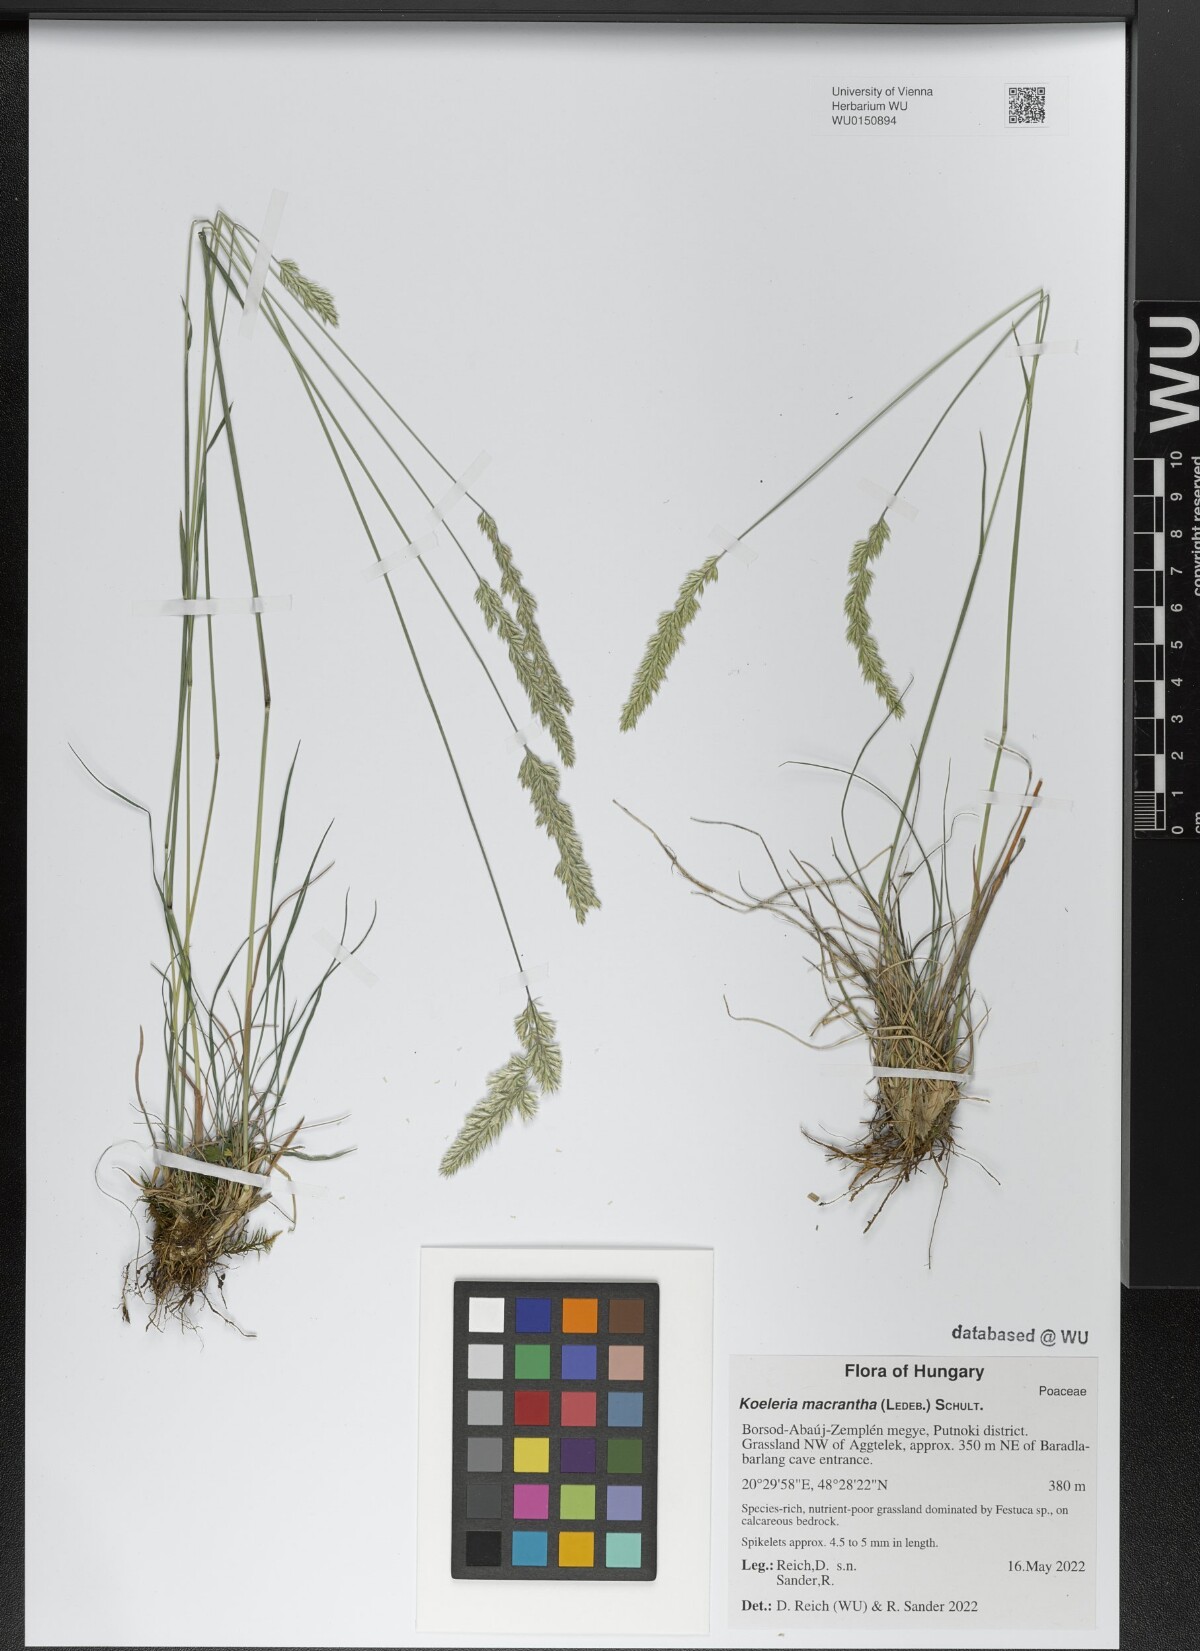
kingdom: Plantae
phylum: Tracheophyta
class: Liliopsida
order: Poales
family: Poaceae
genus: Koeleria
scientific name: Koeleria macrantha
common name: Crested hair-grass
